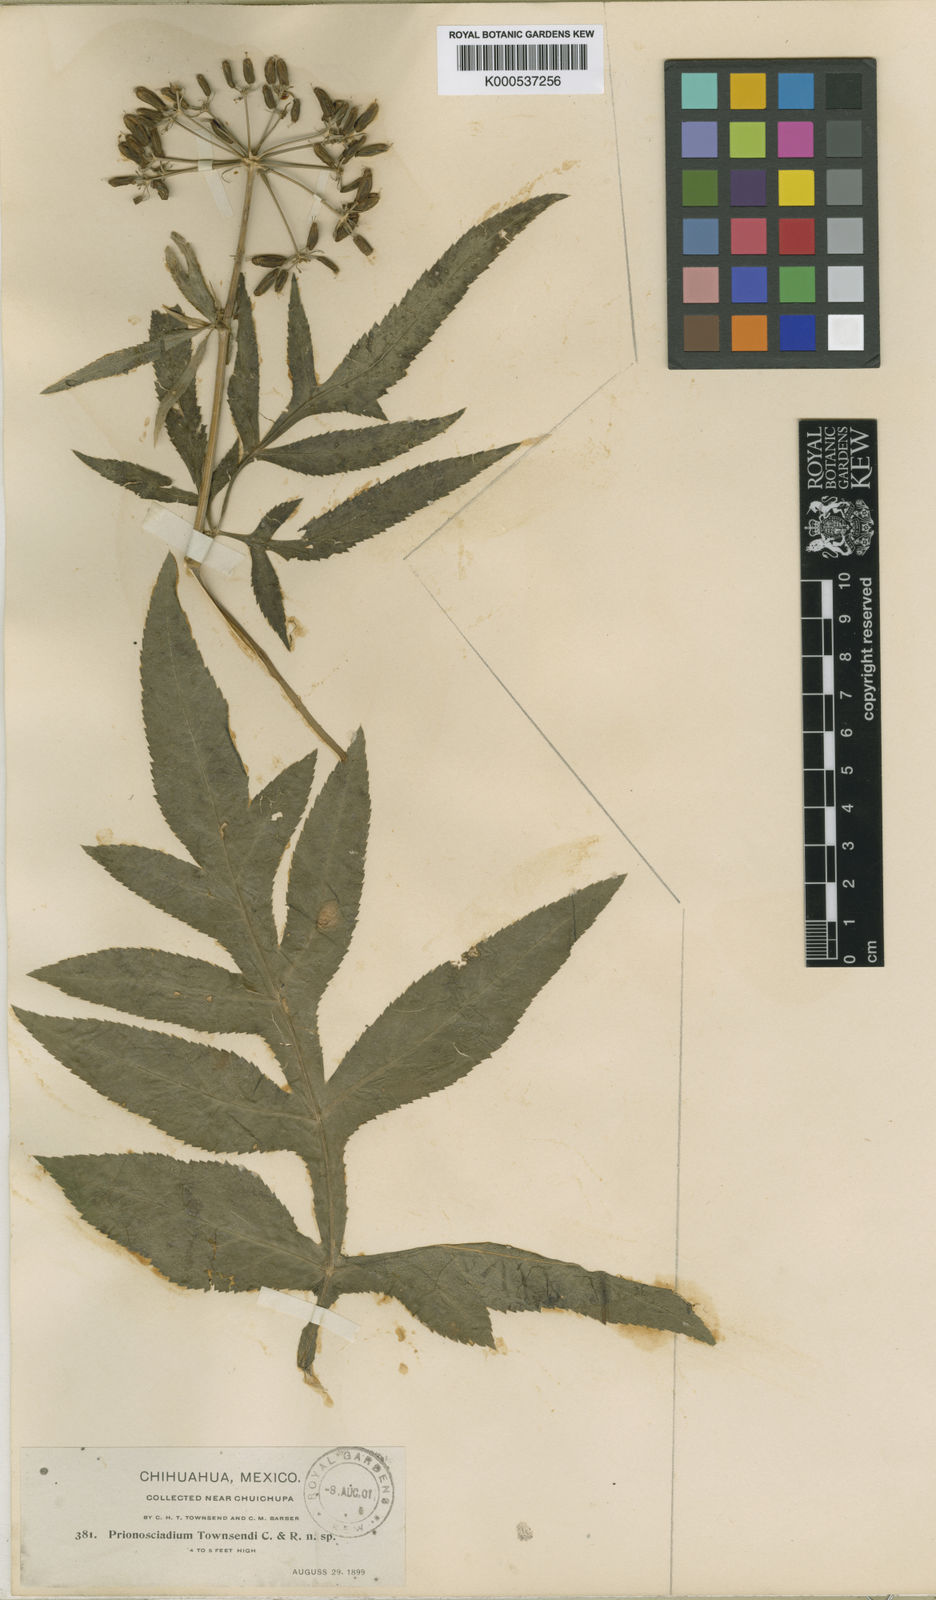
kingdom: Plantae
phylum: Tracheophyta
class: Magnoliopsida
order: Apiales
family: Apiaceae
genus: Prionosciadium
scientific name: Prionosciadium townsendii
